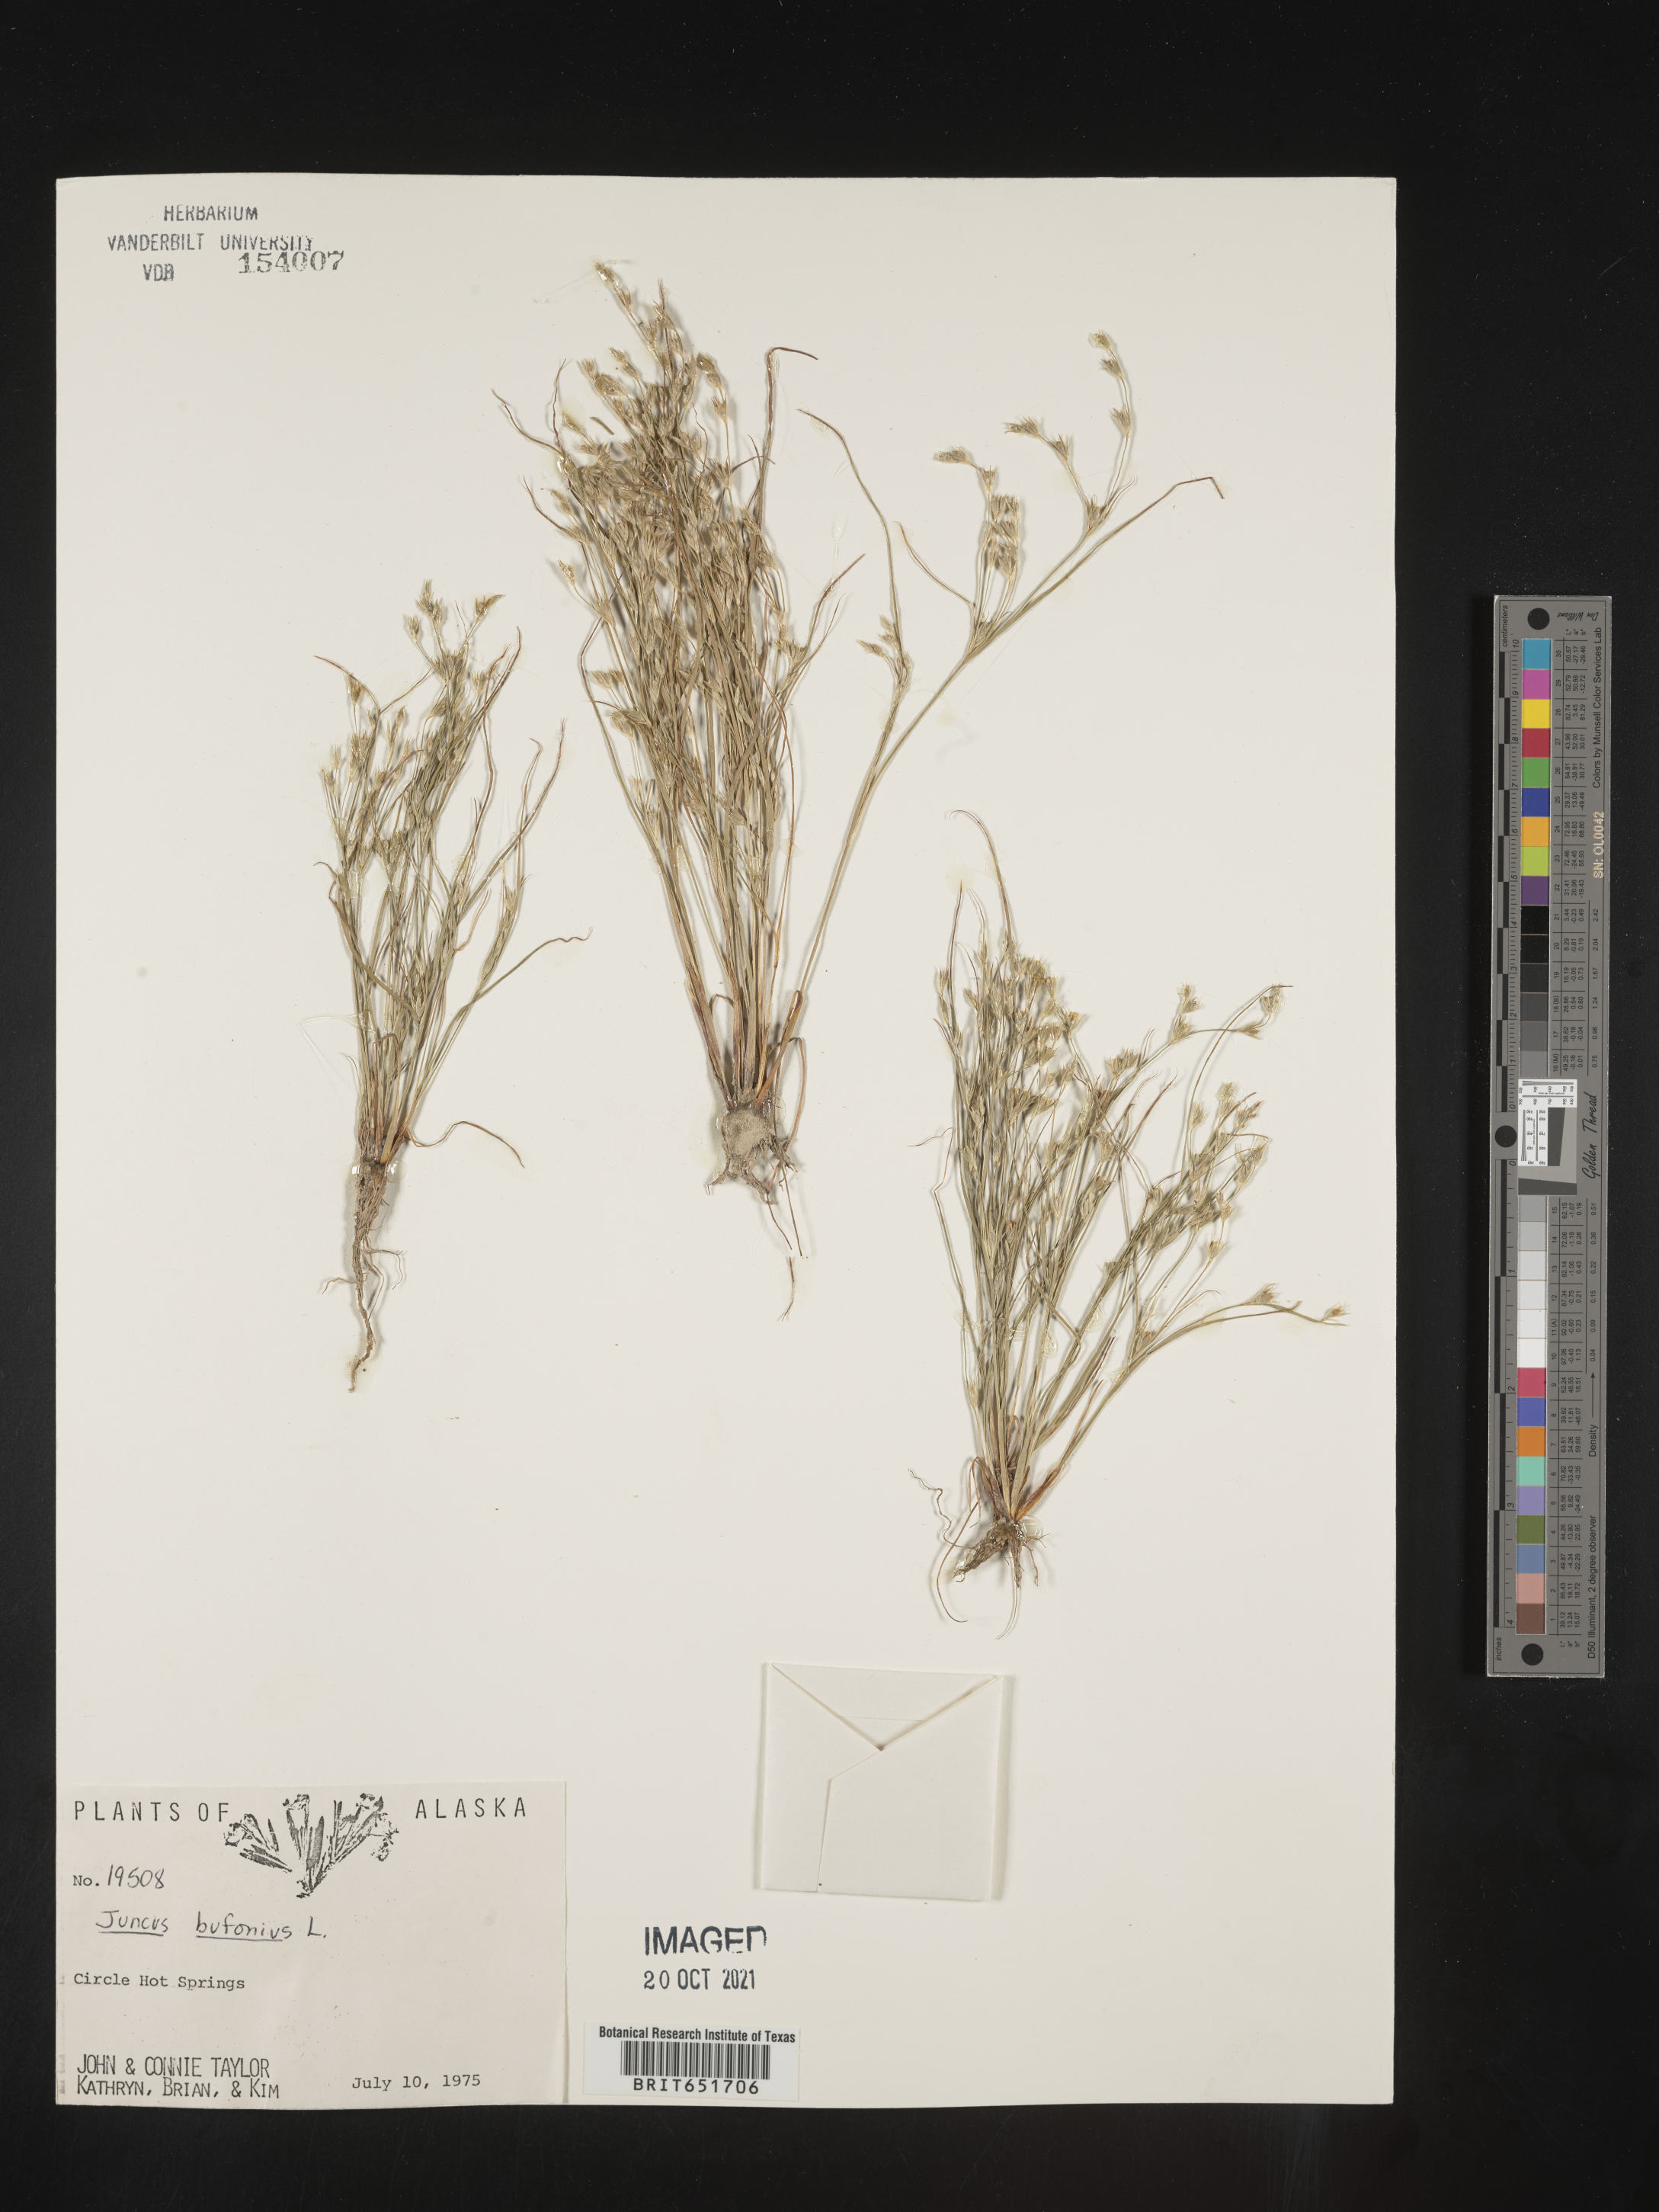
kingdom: Plantae
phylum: Tracheophyta
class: Liliopsida
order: Poales
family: Juncaceae
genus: Juncus
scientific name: Juncus bufonius
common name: Toad rush
